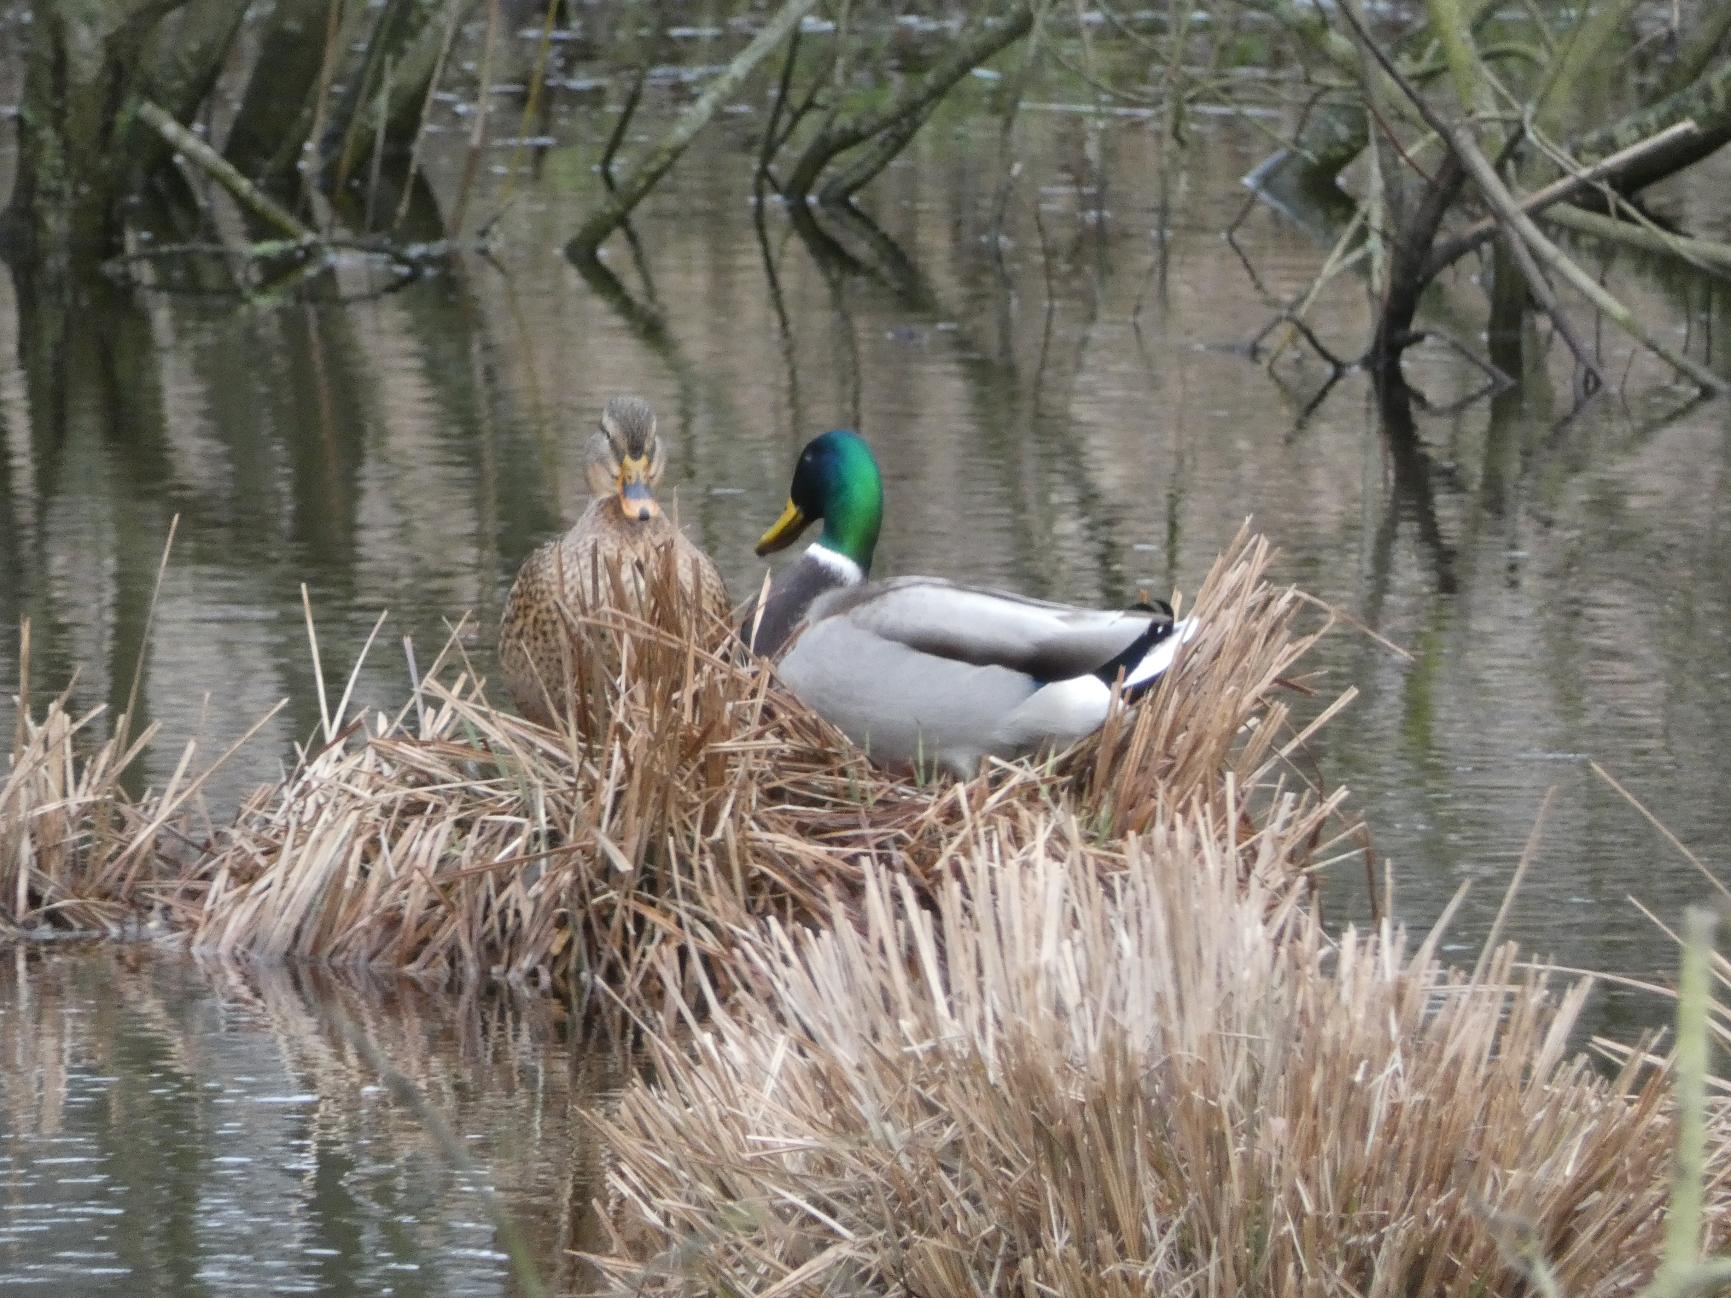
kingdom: Animalia
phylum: Chordata
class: Aves
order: Anseriformes
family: Anatidae
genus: Anas
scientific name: Anas platyrhynchos
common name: Gråand
